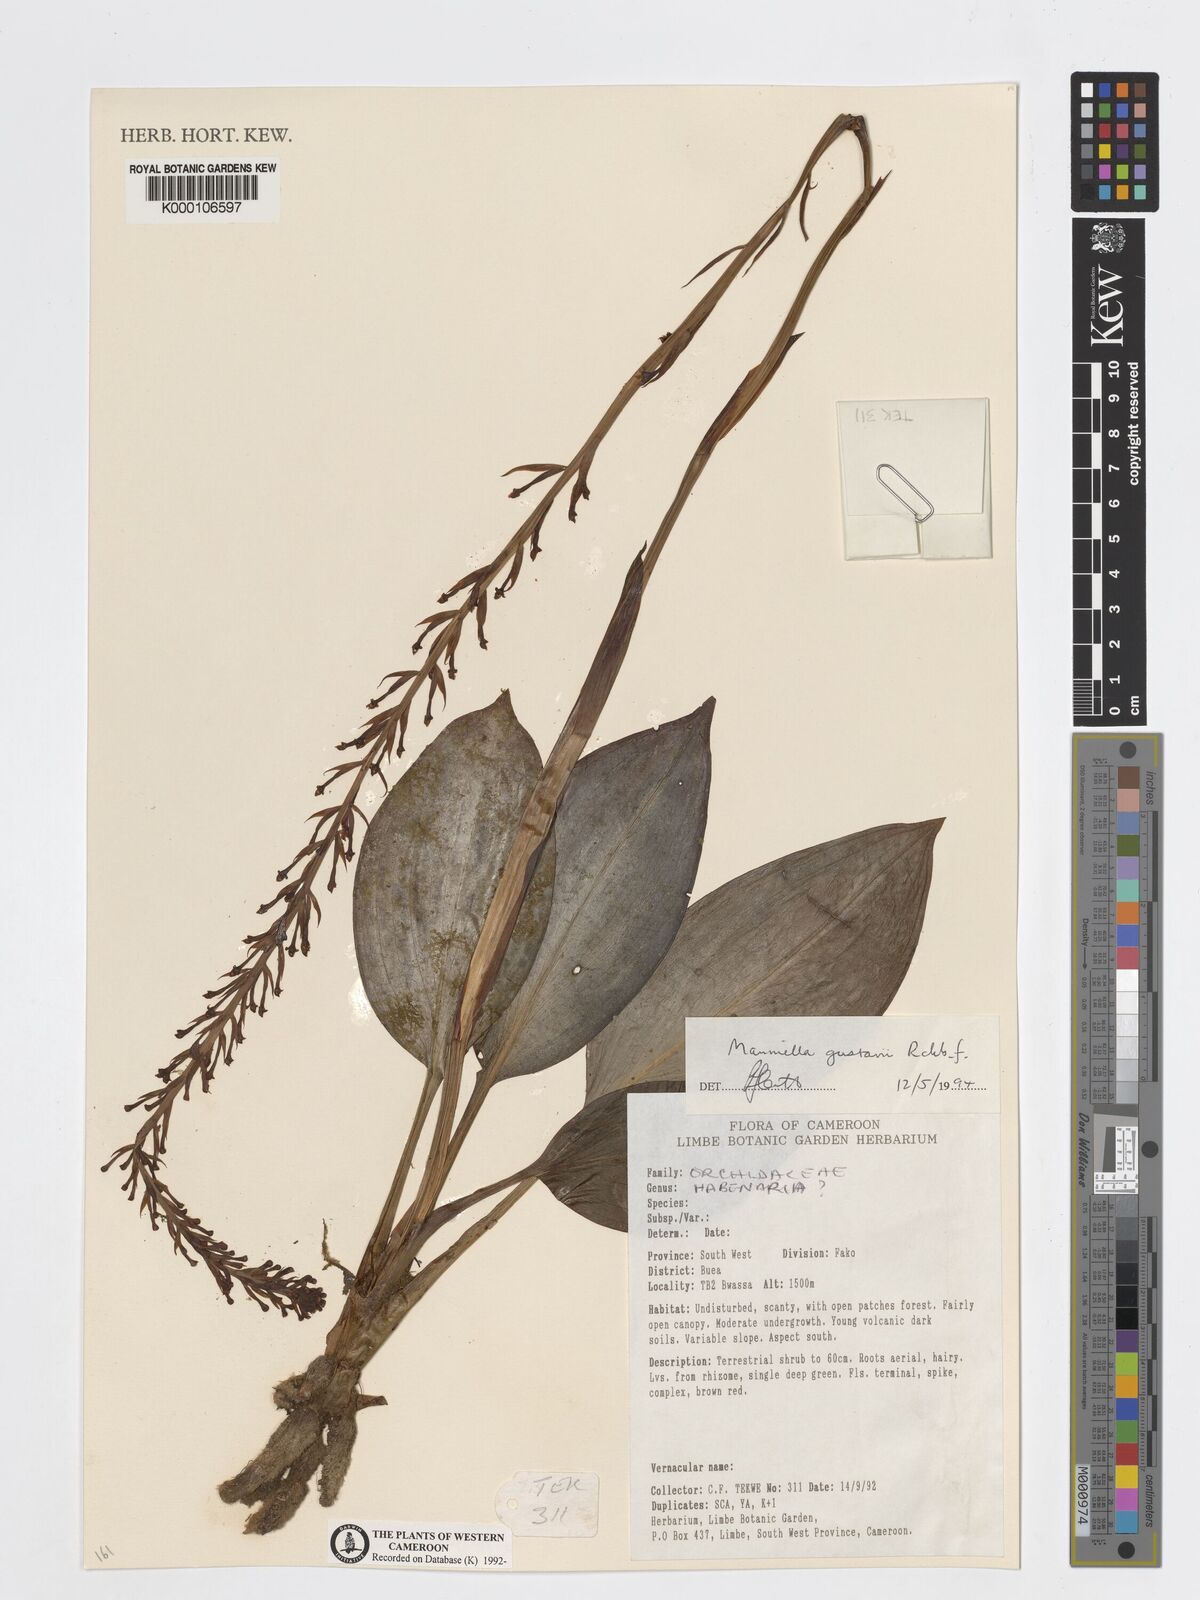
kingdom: Plantae
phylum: Tracheophyta
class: Liliopsida
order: Asparagales
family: Orchidaceae
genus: Manniella
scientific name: Manniella gustavi
